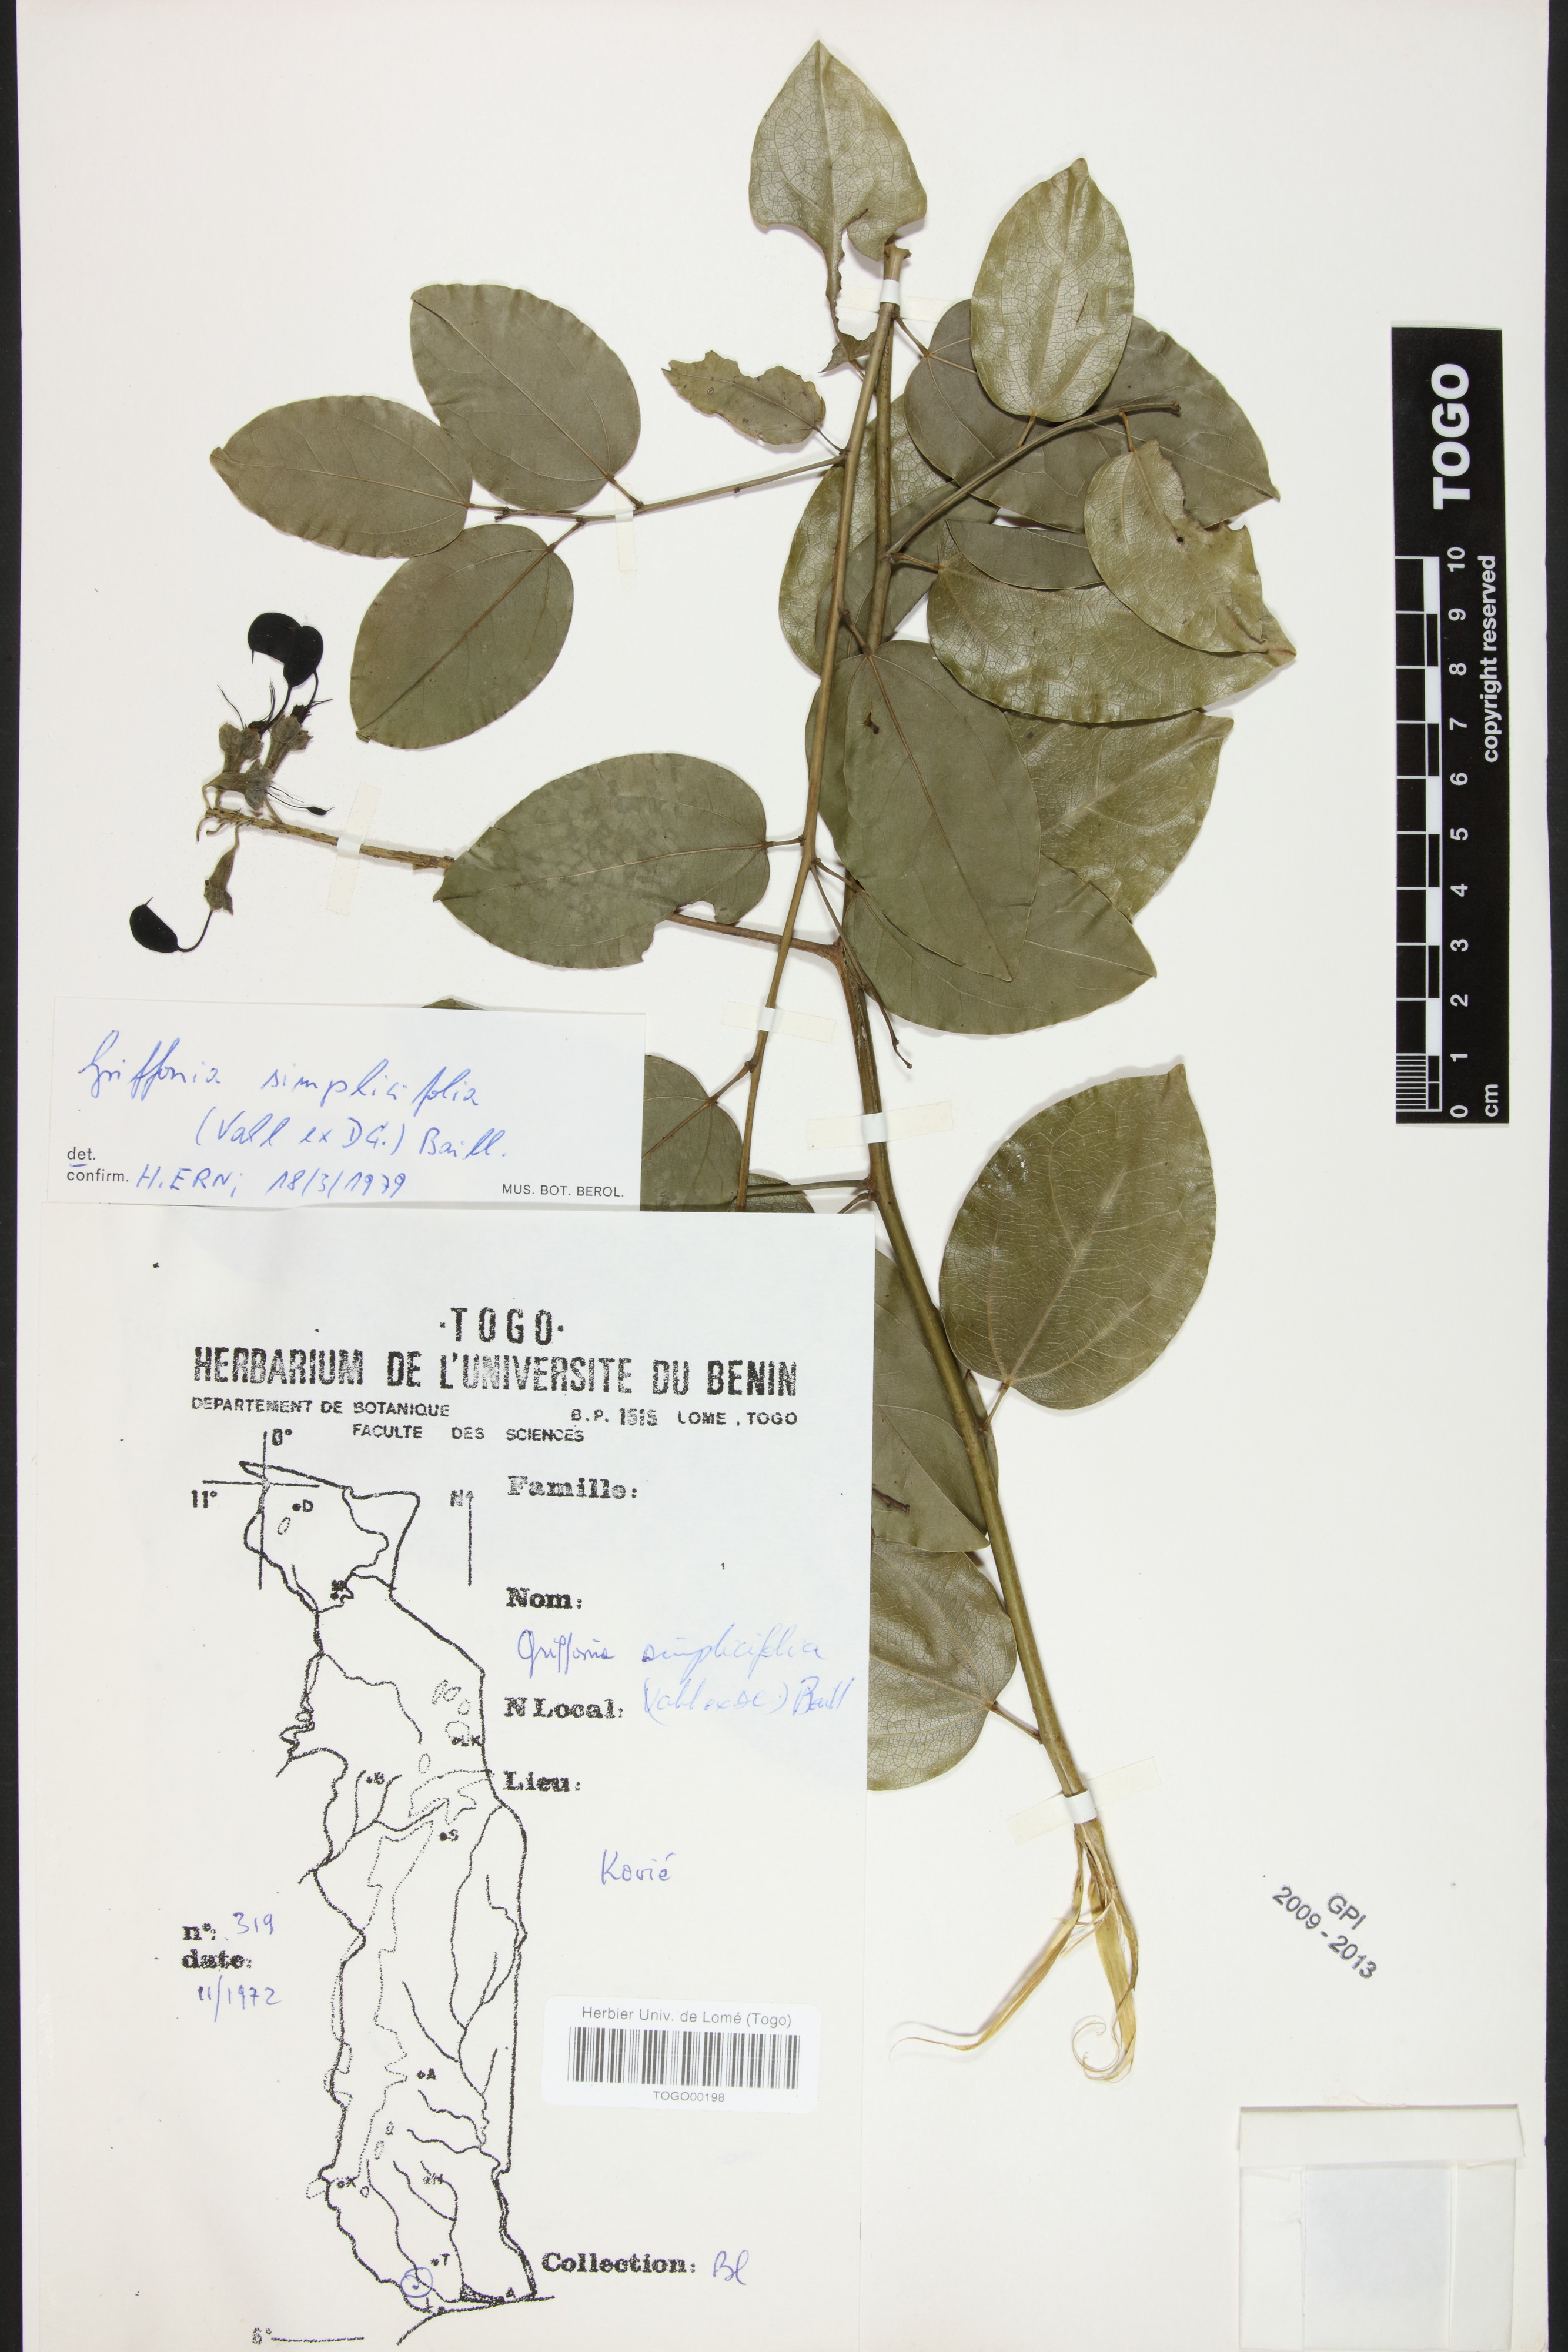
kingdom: Plantae
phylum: Tracheophyta
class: Magnoliopsida
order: Fabales
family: Fabaceae
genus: Griffonia
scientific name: Griffonia simplicifolia
